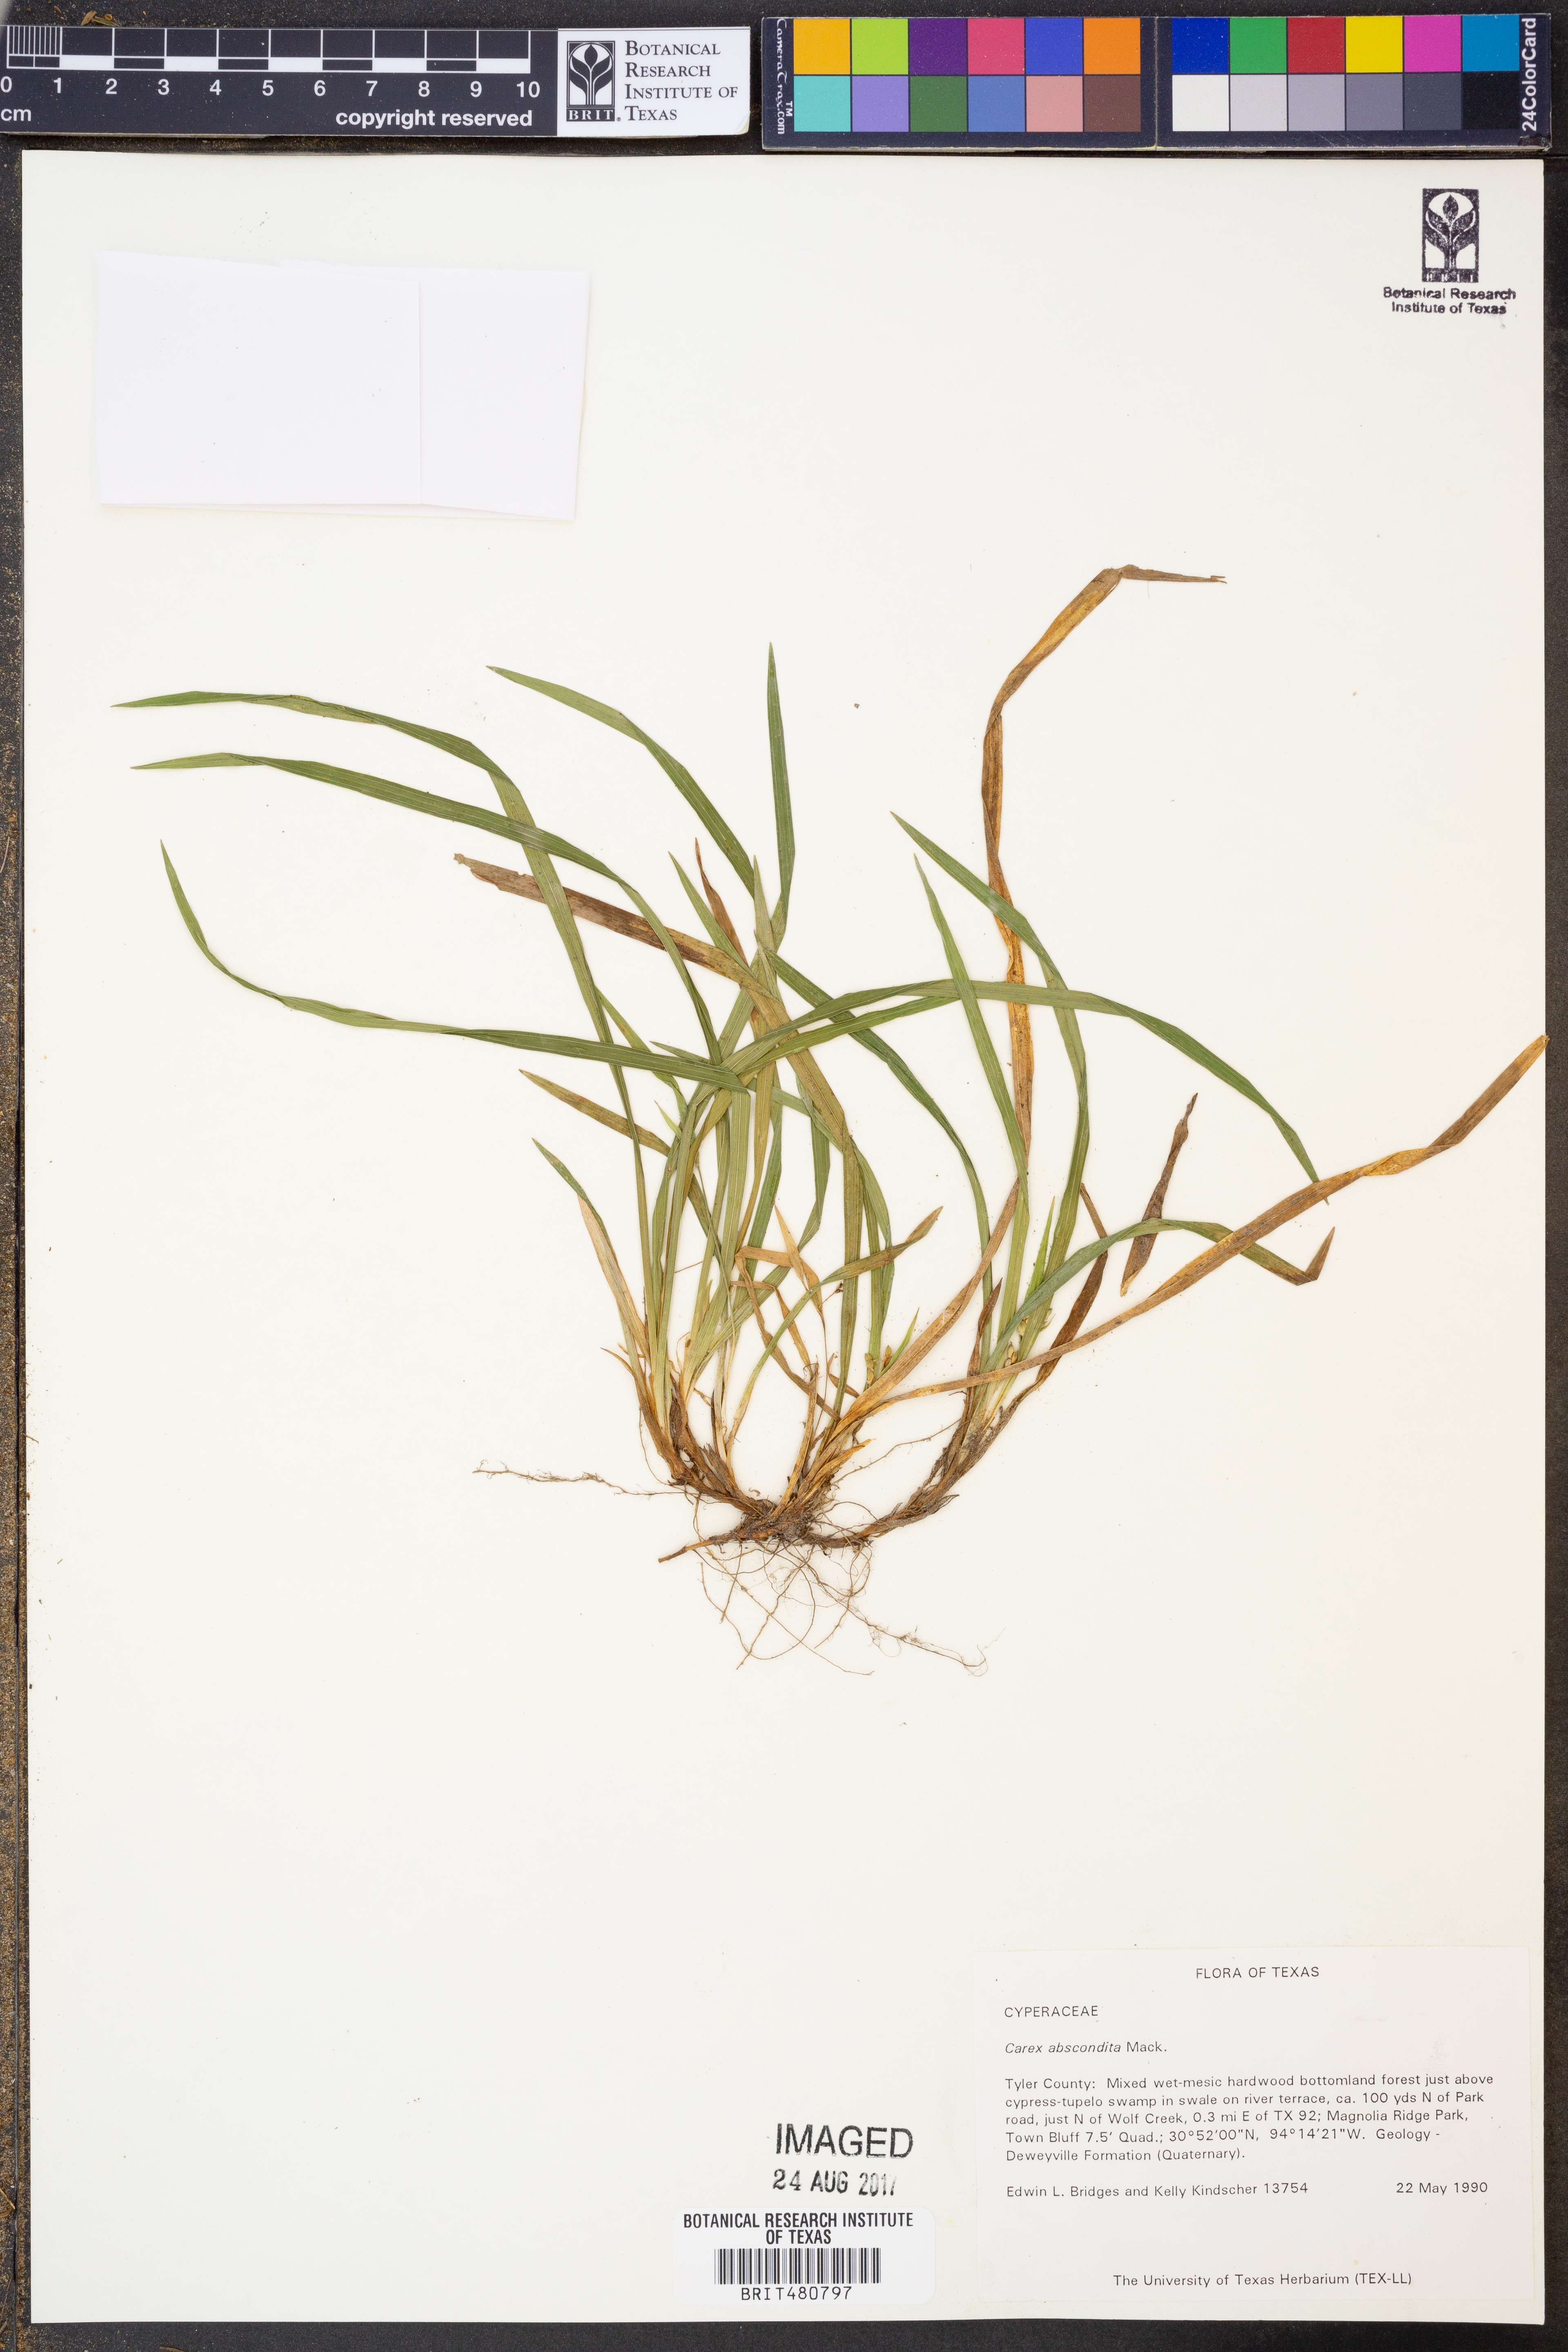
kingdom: Plantae
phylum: Tracheophyta
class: Liliopsida
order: Poales
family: Cyperaceae
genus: Carex
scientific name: Carex abscondita
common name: Thicket sedge
